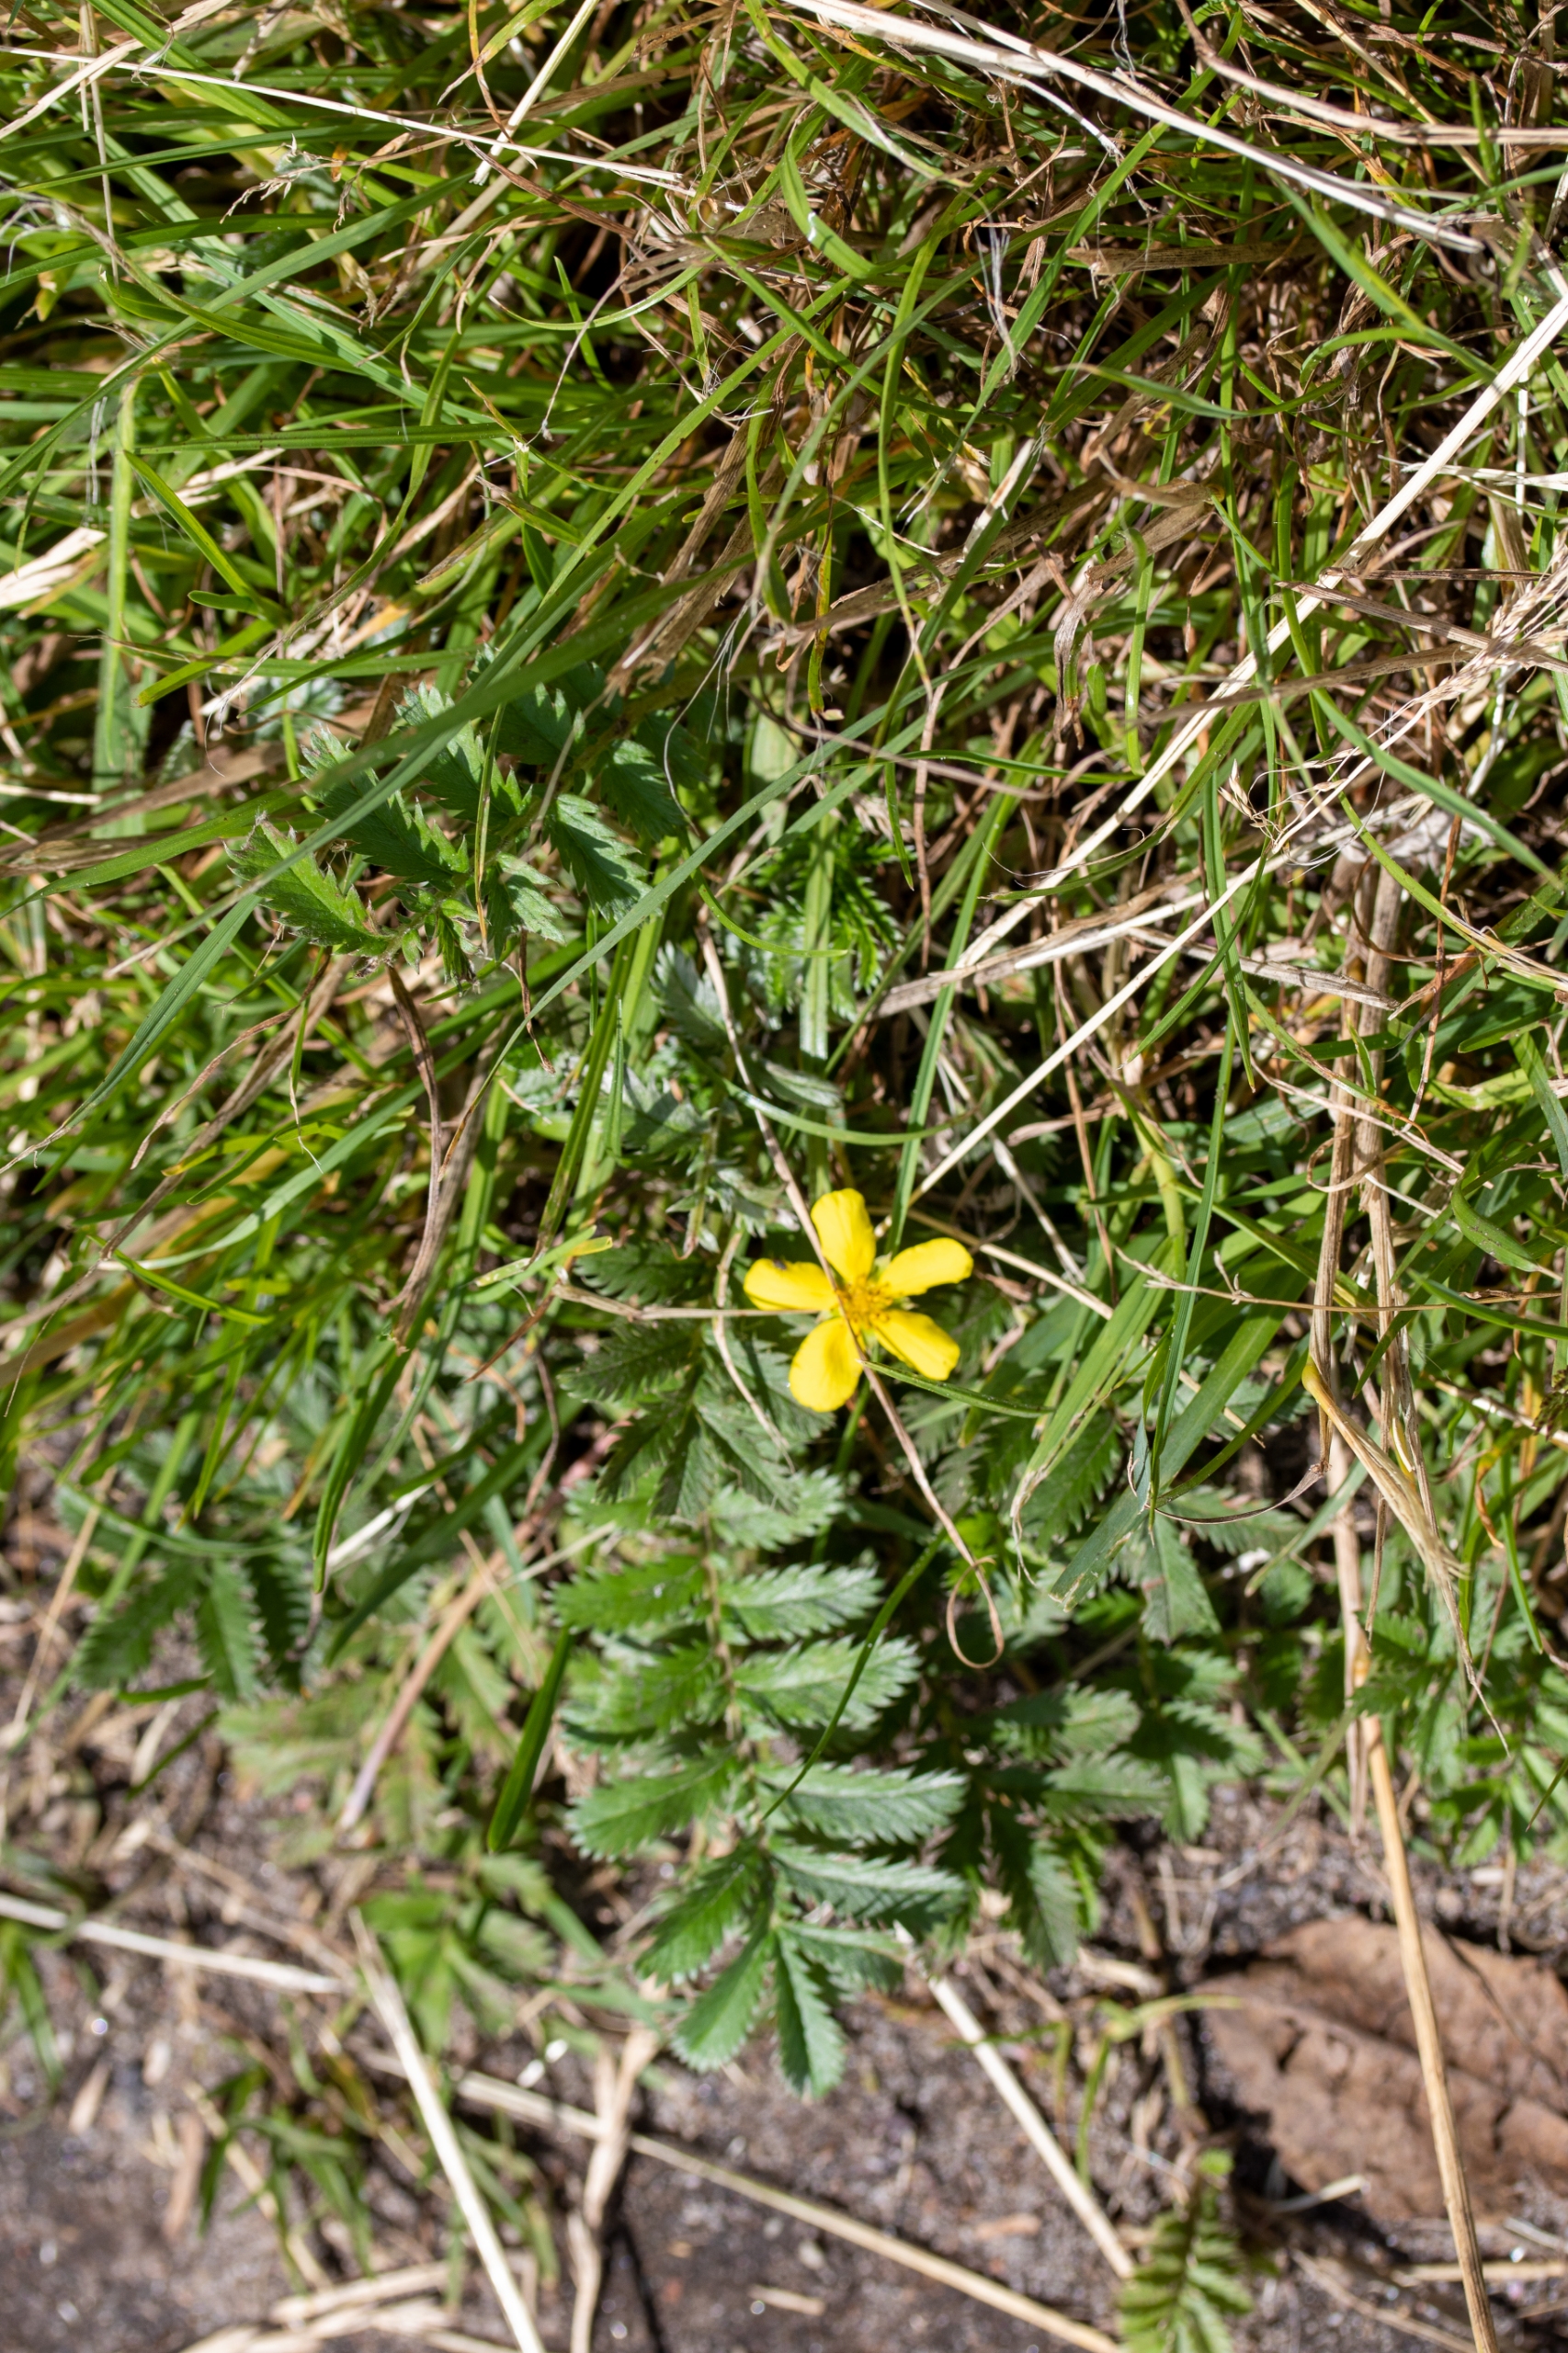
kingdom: Plantae
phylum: Tracheophyta
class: Magnoliopsida
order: Rosales
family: Rosaceae
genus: Argentina
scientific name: Argentina anserina
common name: Gåsepotentil
